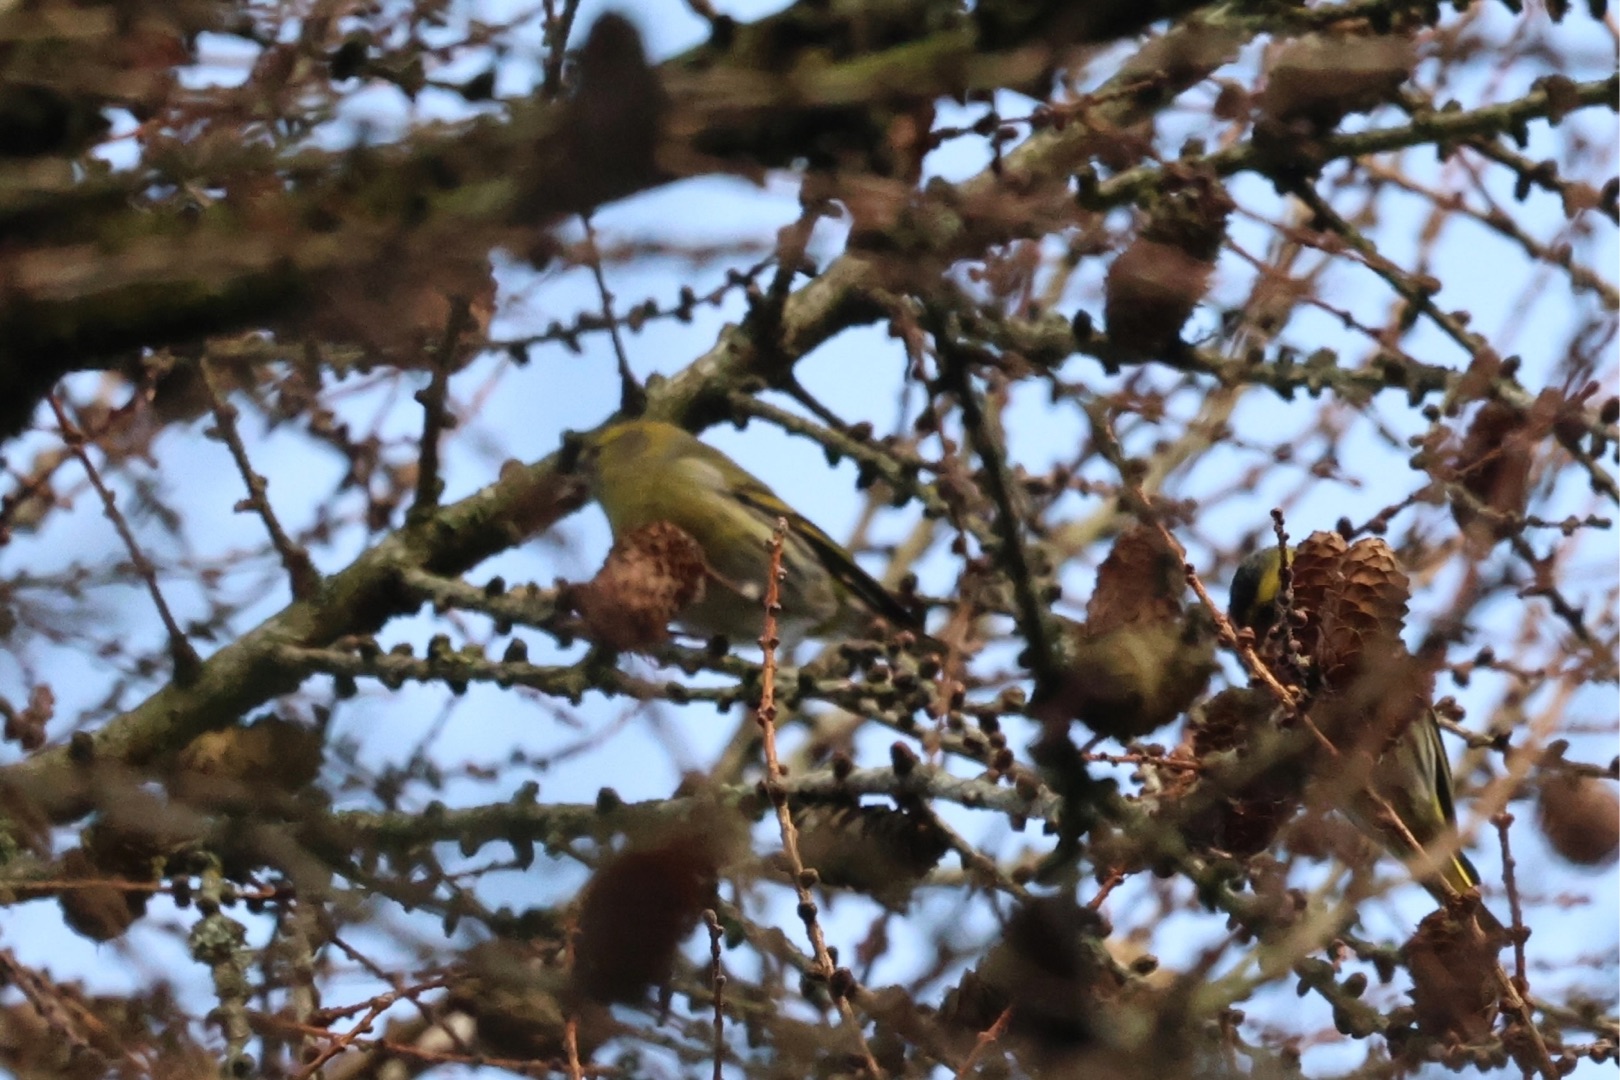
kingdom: Animalia
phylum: Chordata
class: Aves
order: Passeriformes
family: Fringillidae
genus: Spinus
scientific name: Spinus spinus
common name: Grønsisken
